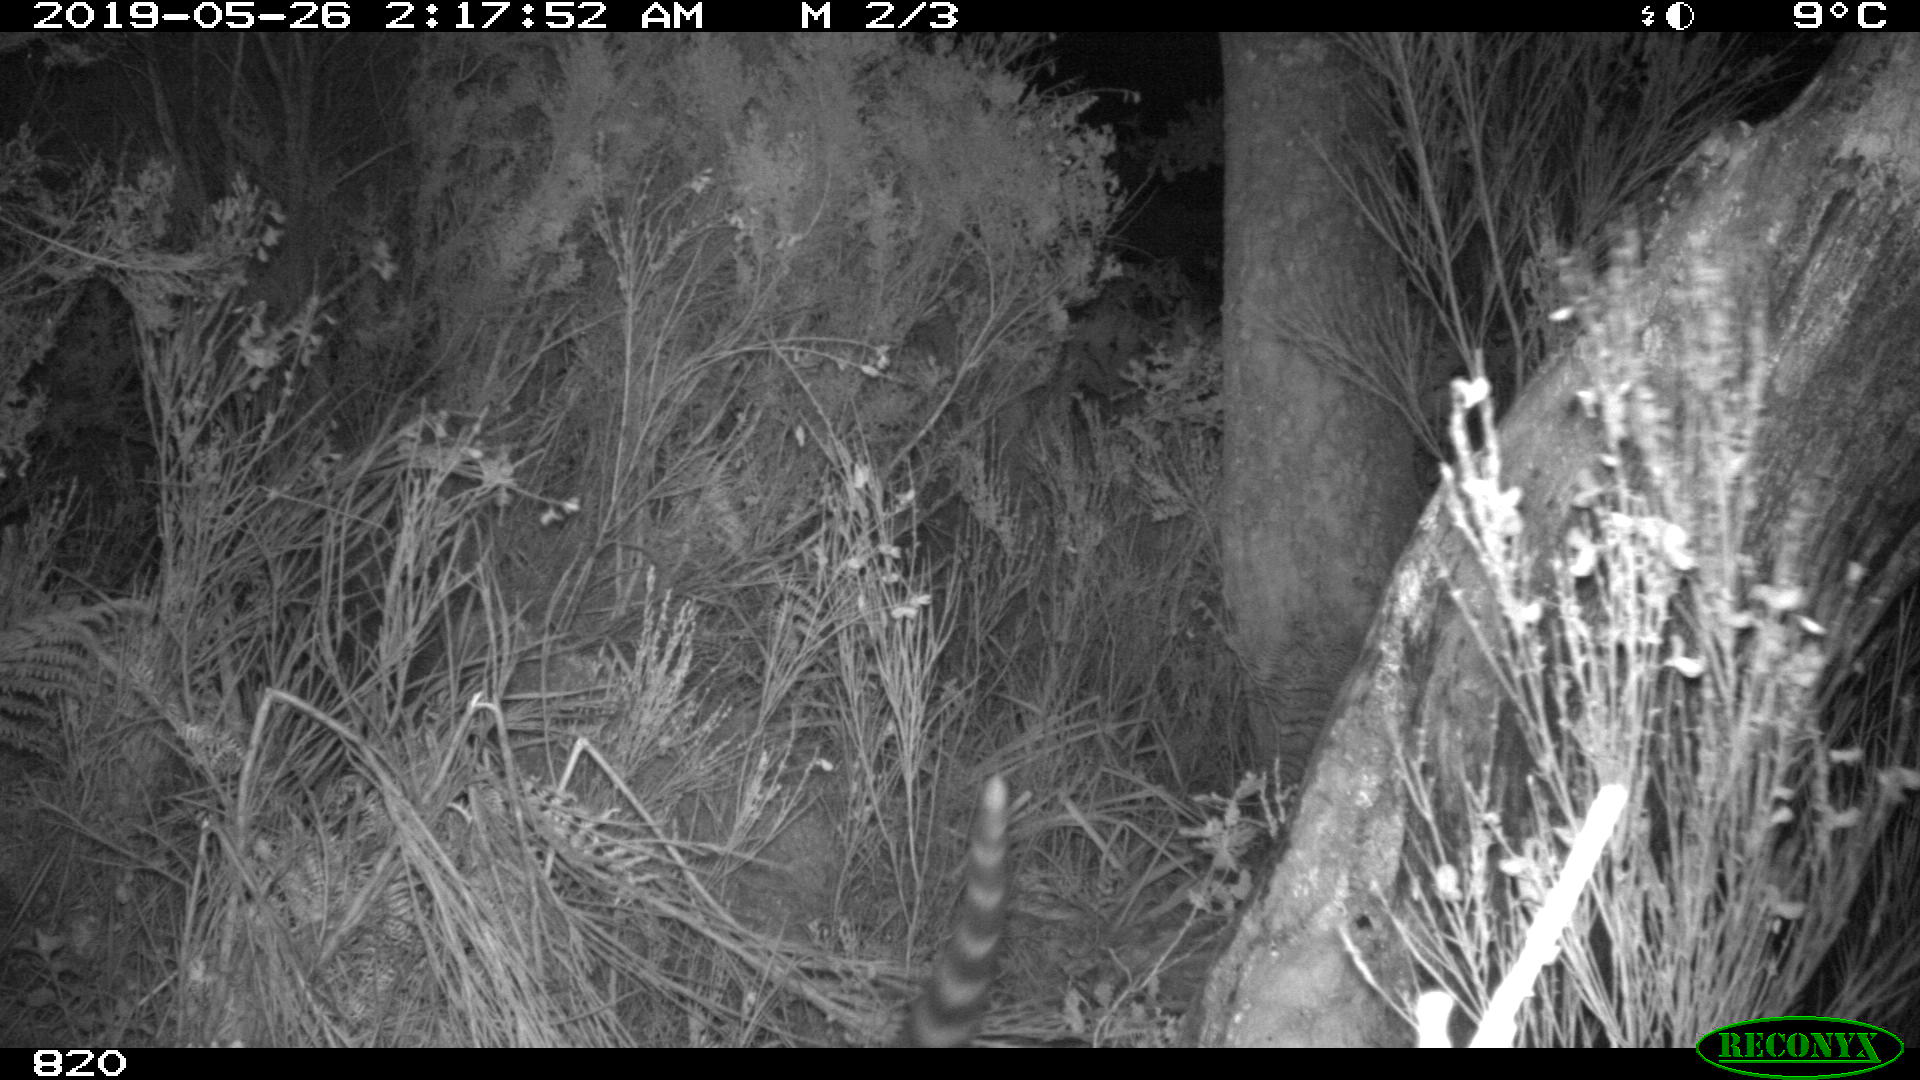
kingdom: Animalia
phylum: Chordata
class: Mammalia
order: Carnivora
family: Viverridae
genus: Genetta
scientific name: Genetta genetta
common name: Common genet
